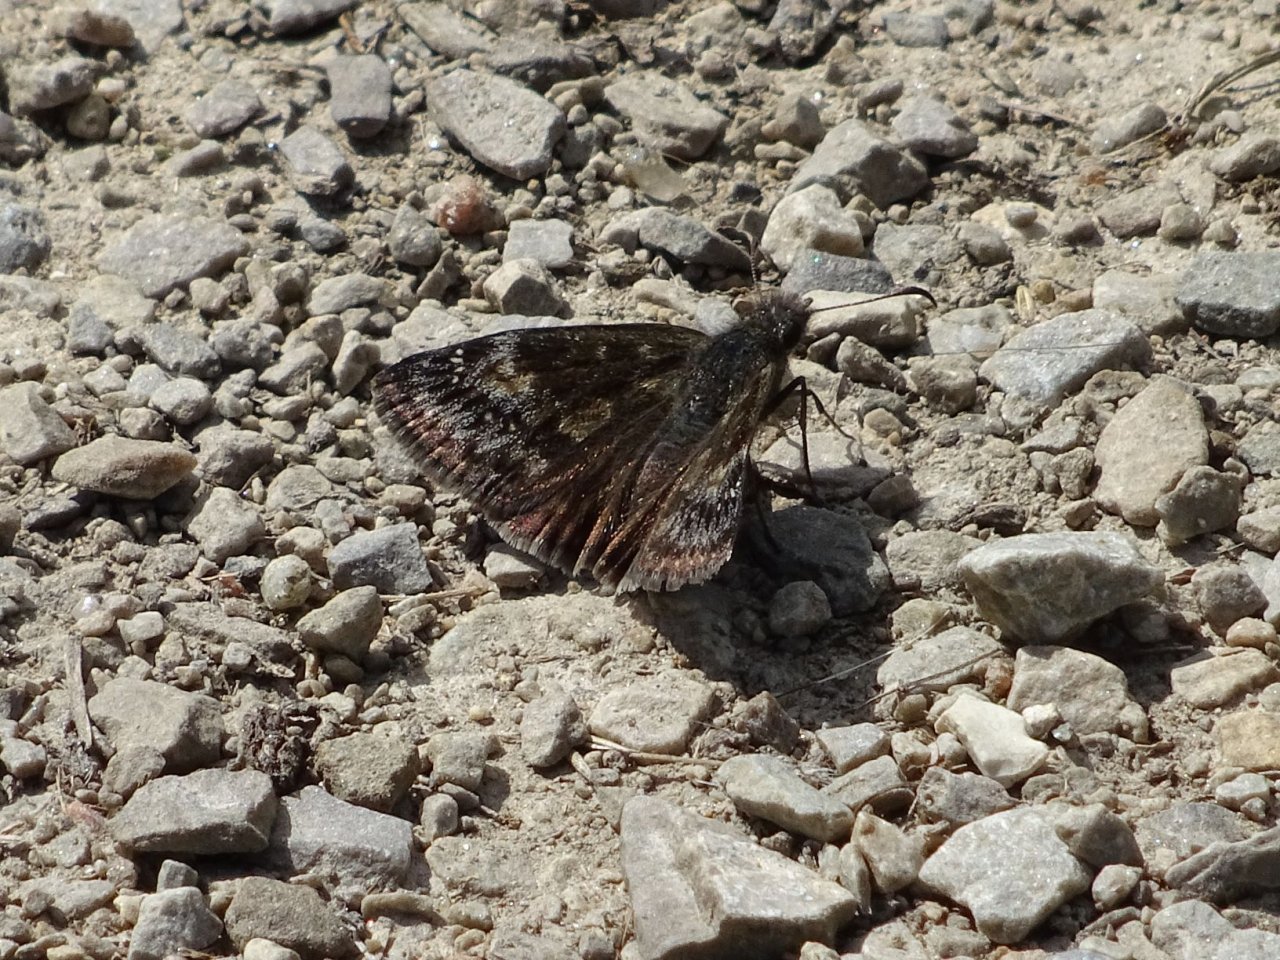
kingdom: Animalia
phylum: Arthropoda
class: Insecta
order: Lepidoptera
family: Hesperiidae
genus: Gesta
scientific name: Gesta
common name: Wild Indigo Duskywing
